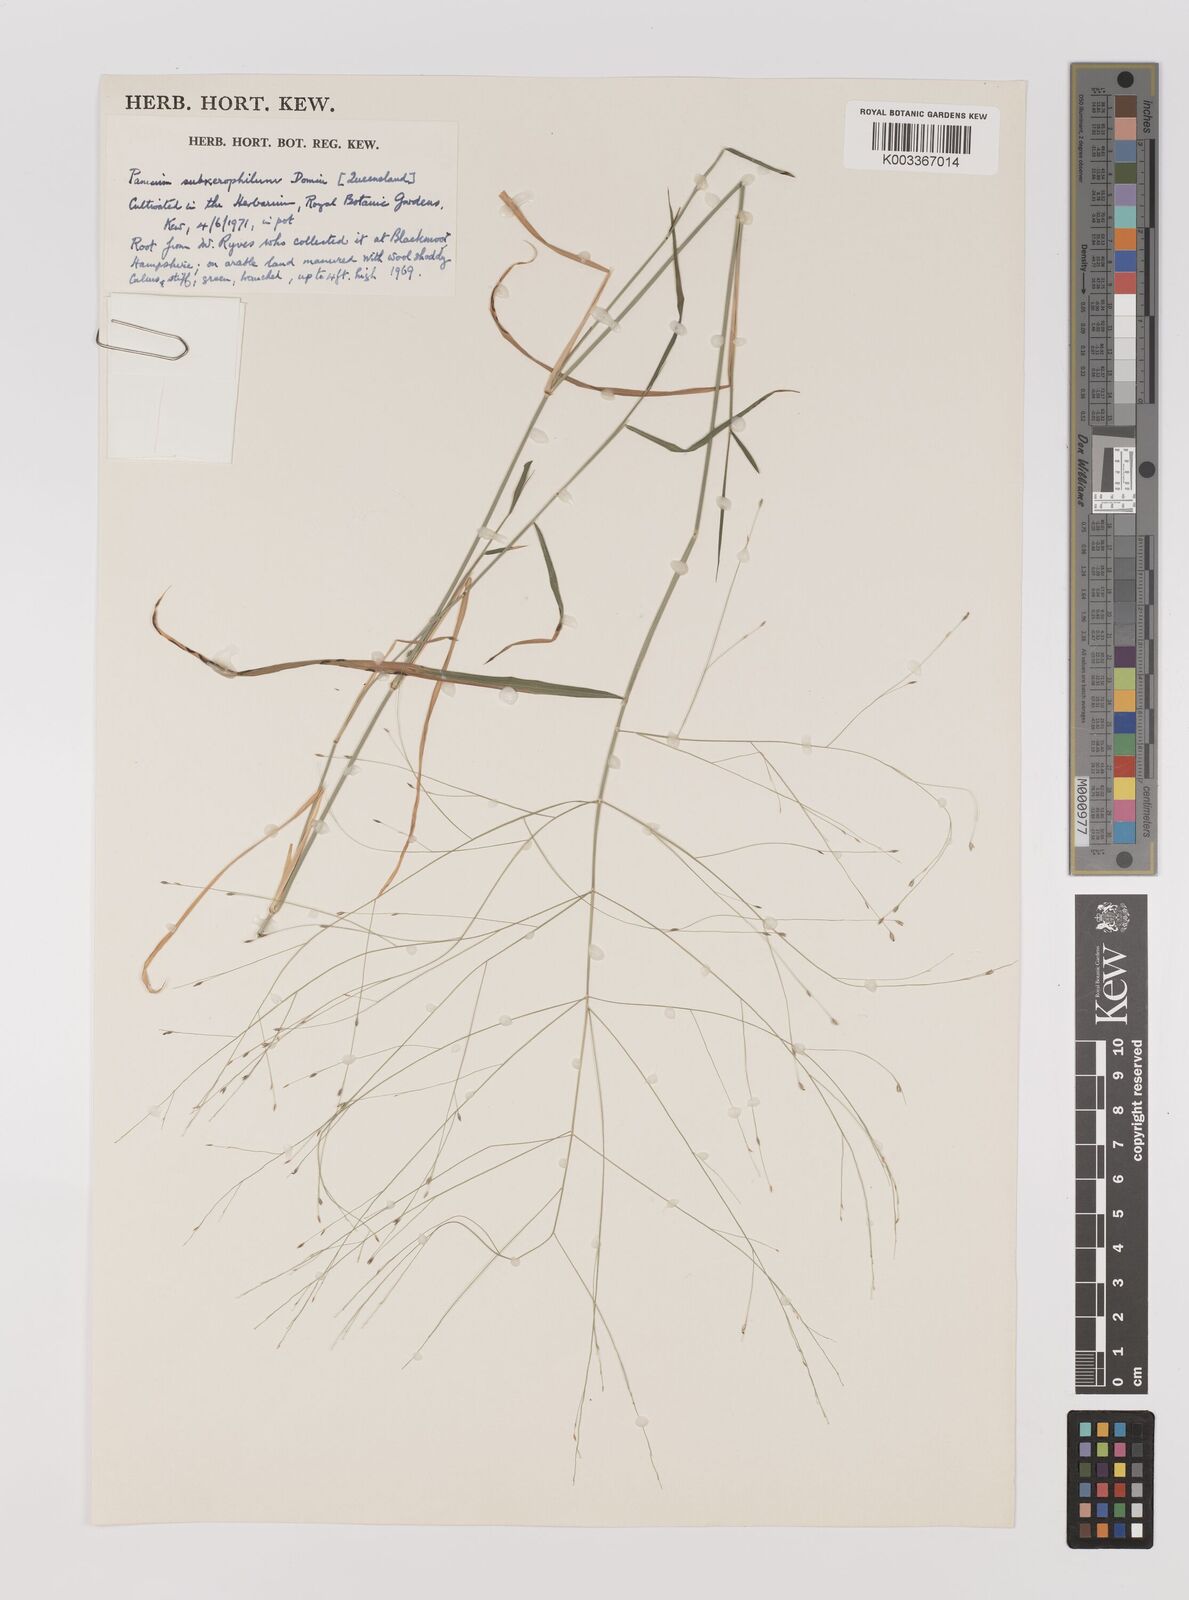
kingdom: Plantae
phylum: Tracheophyta
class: Liliopsida
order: Poales
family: Poaceae
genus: Walwhalleya
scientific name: Walwhalleya subxerophila
